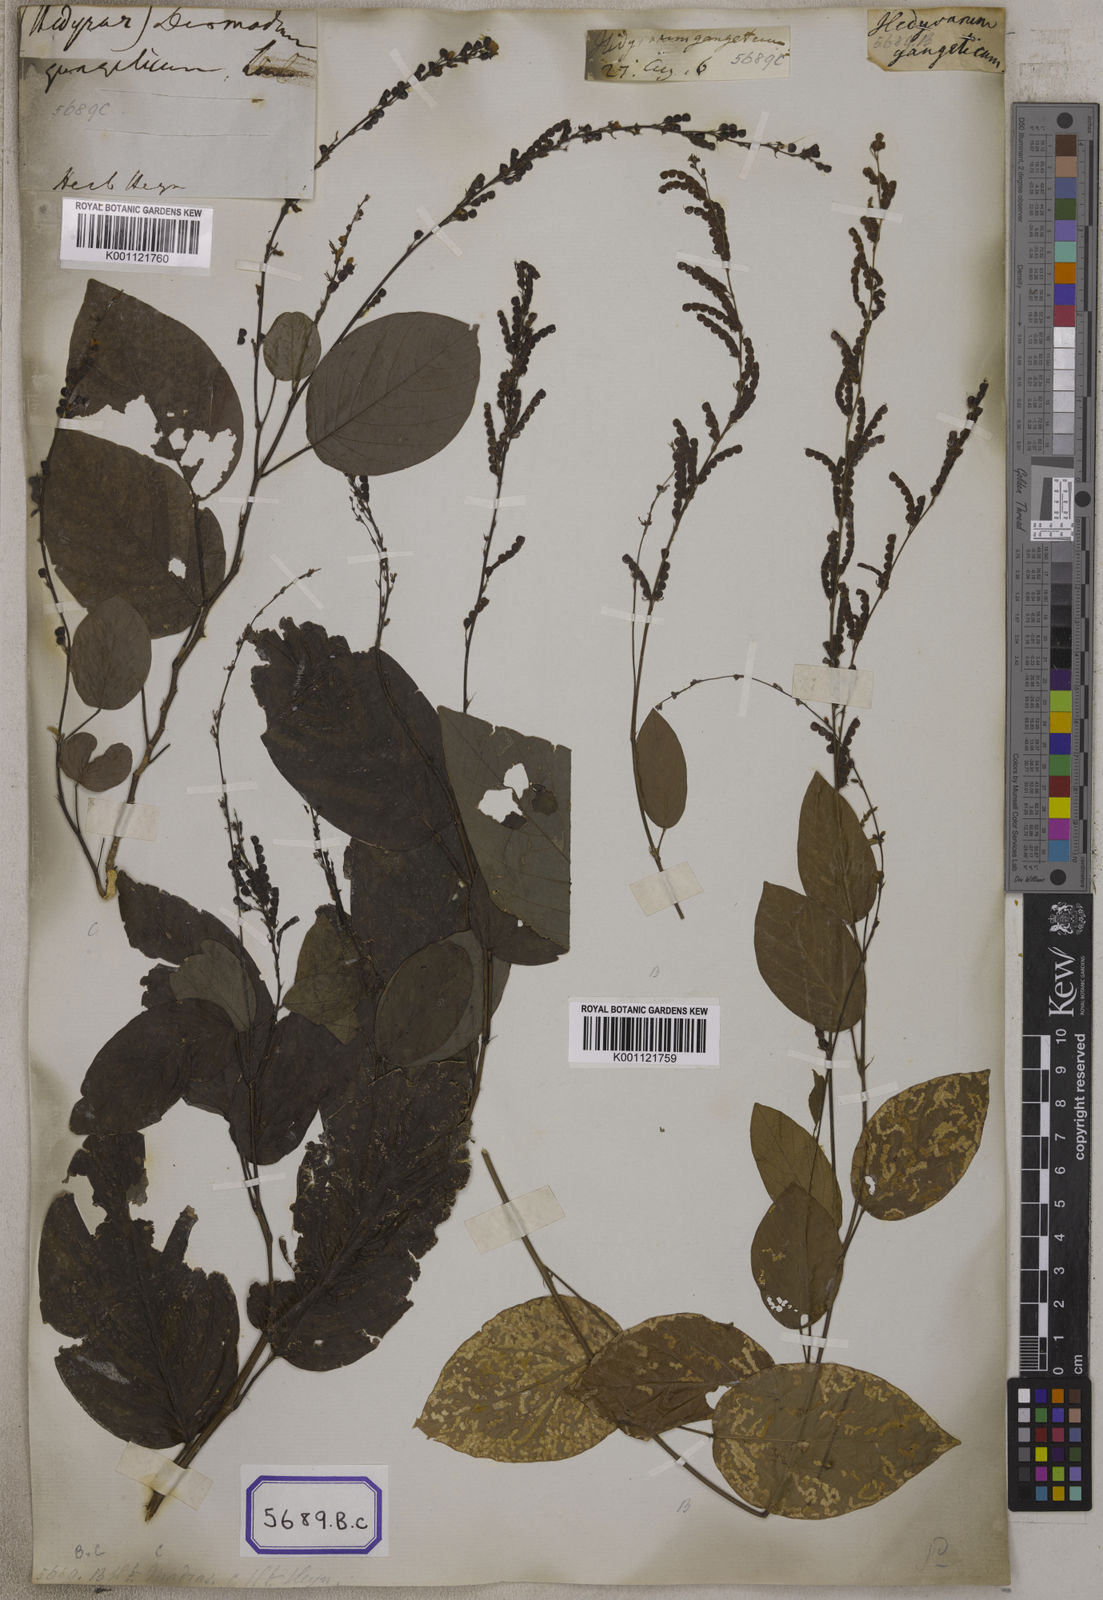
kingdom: Plantae
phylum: Tracheophyta
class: Magnoliopsida
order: Fabales
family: Fabaceae
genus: Pleurolobus
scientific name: Pleurolobus gangeticus
